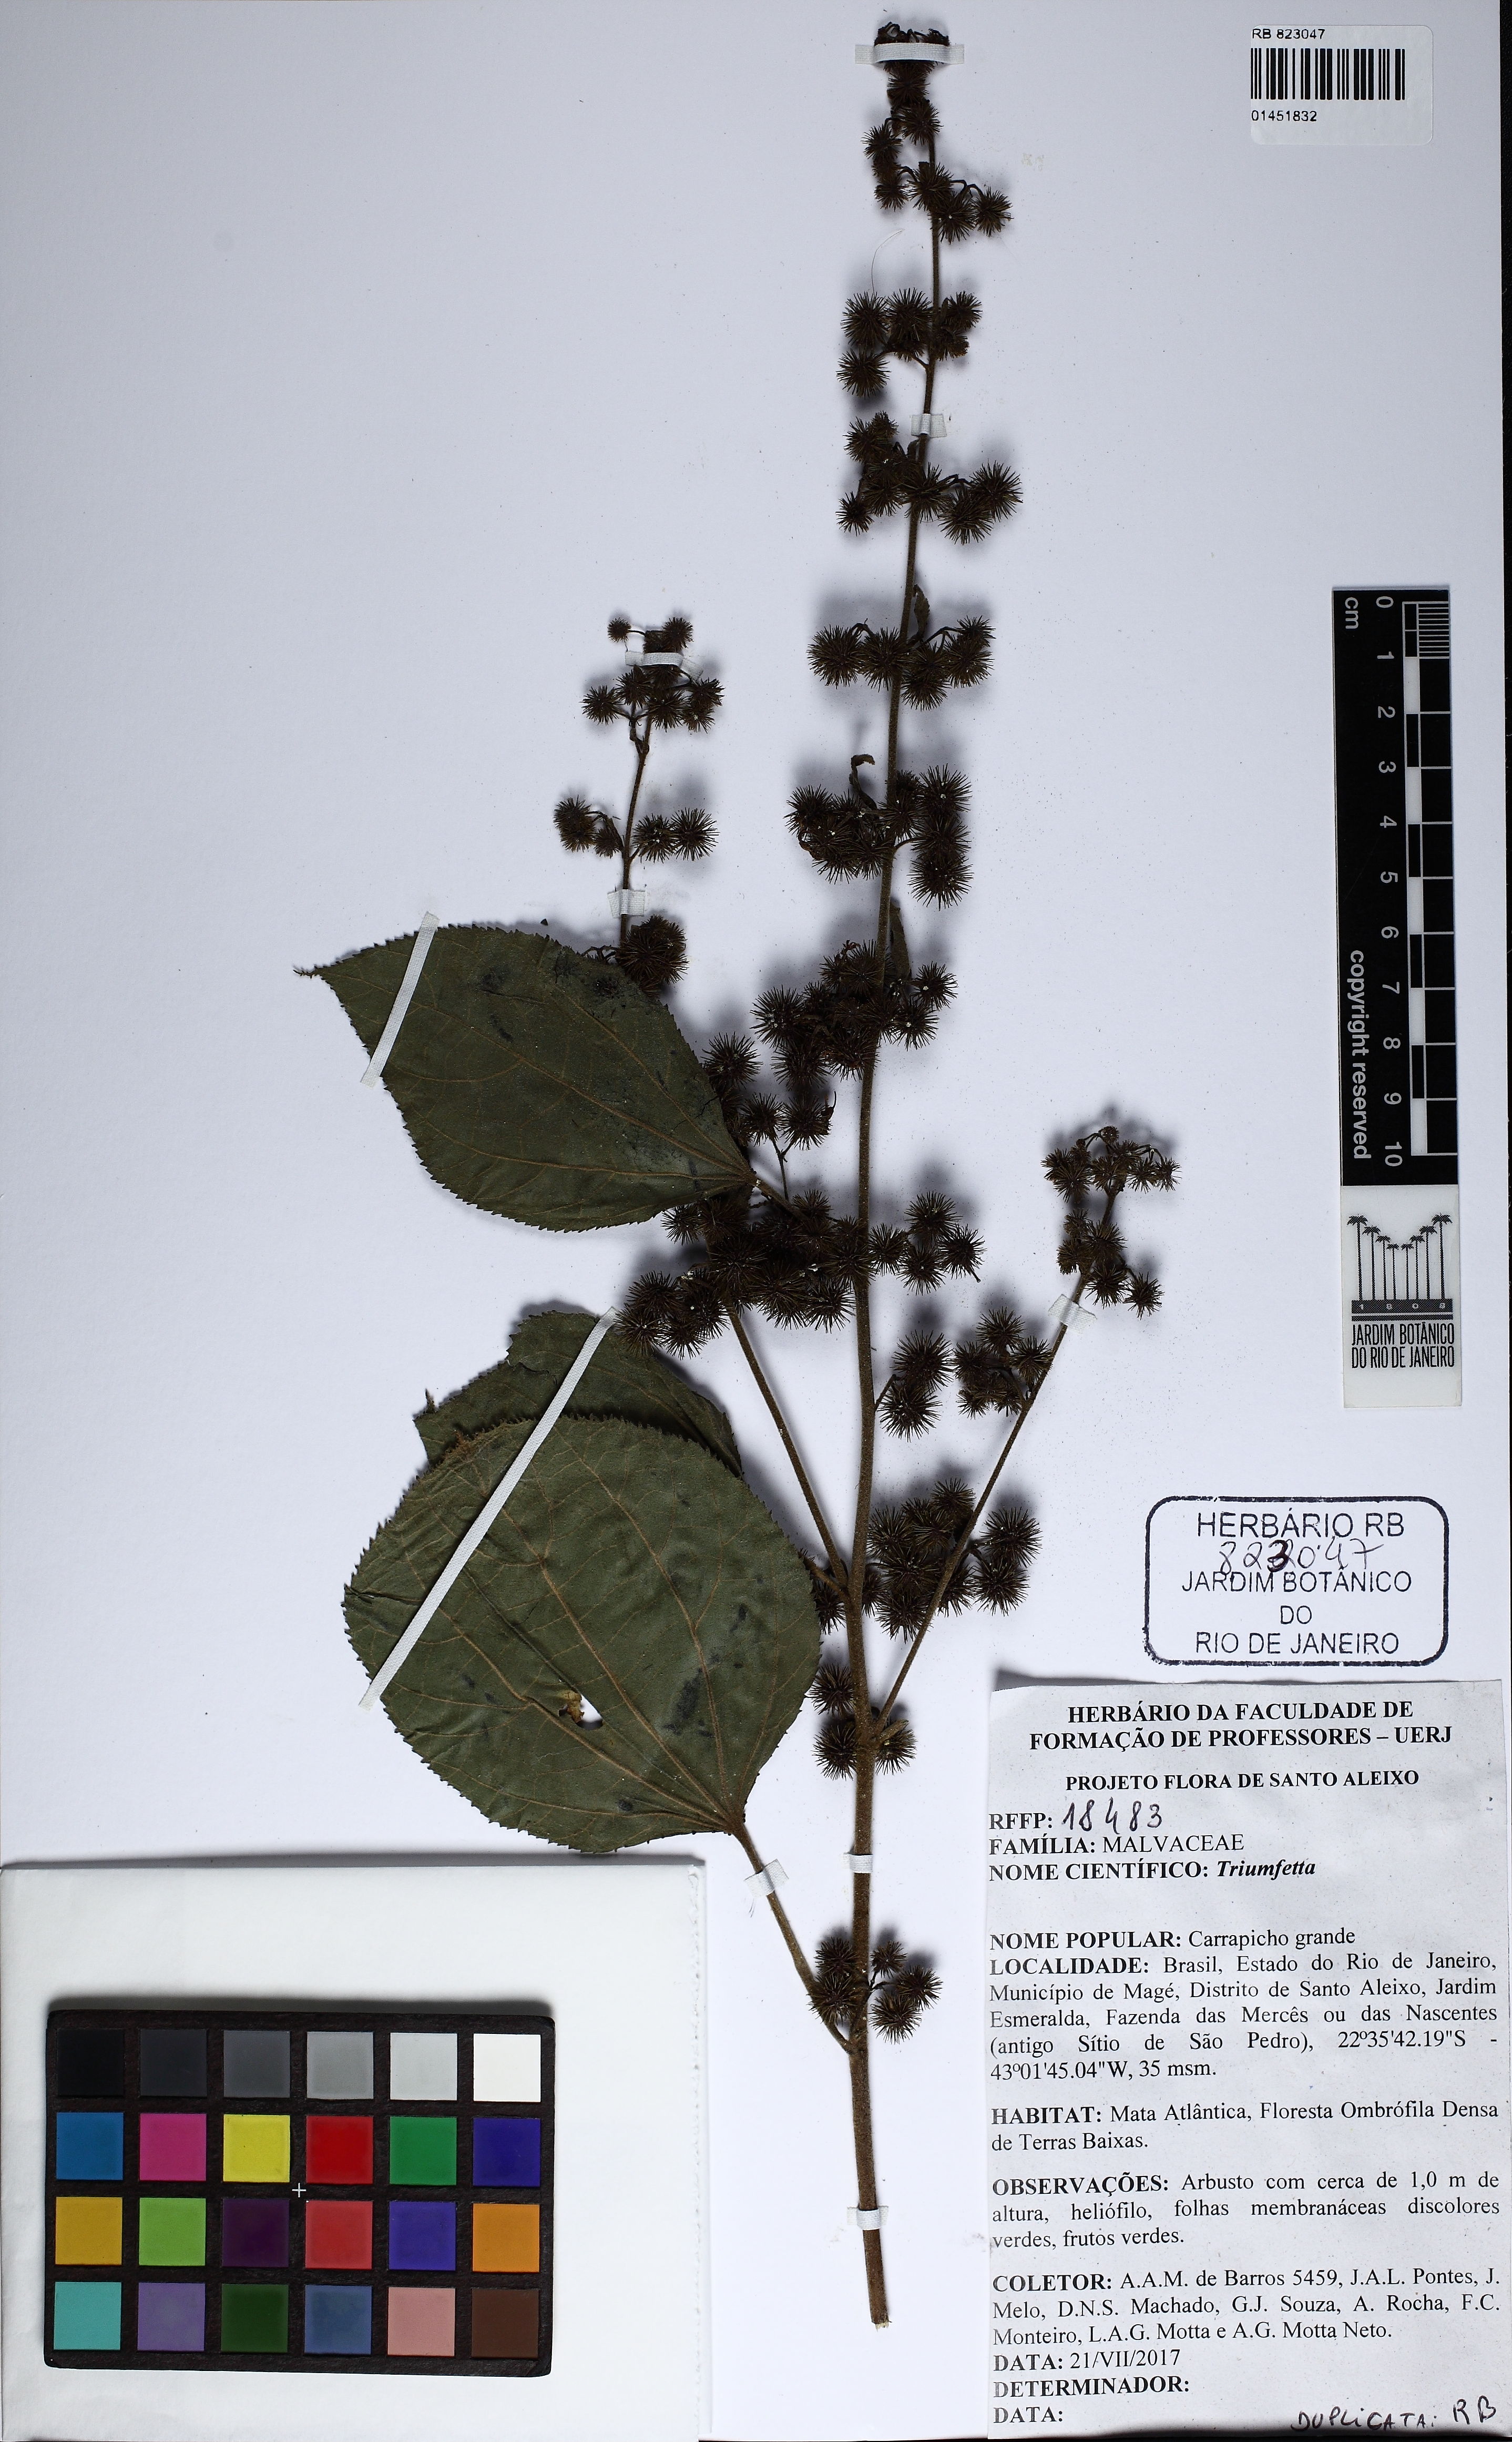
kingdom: Plantae
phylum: Tracheophyta
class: Magnoliopsida
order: Malvales
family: Malvaceae
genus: Triumfetta
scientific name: Triumfetta
